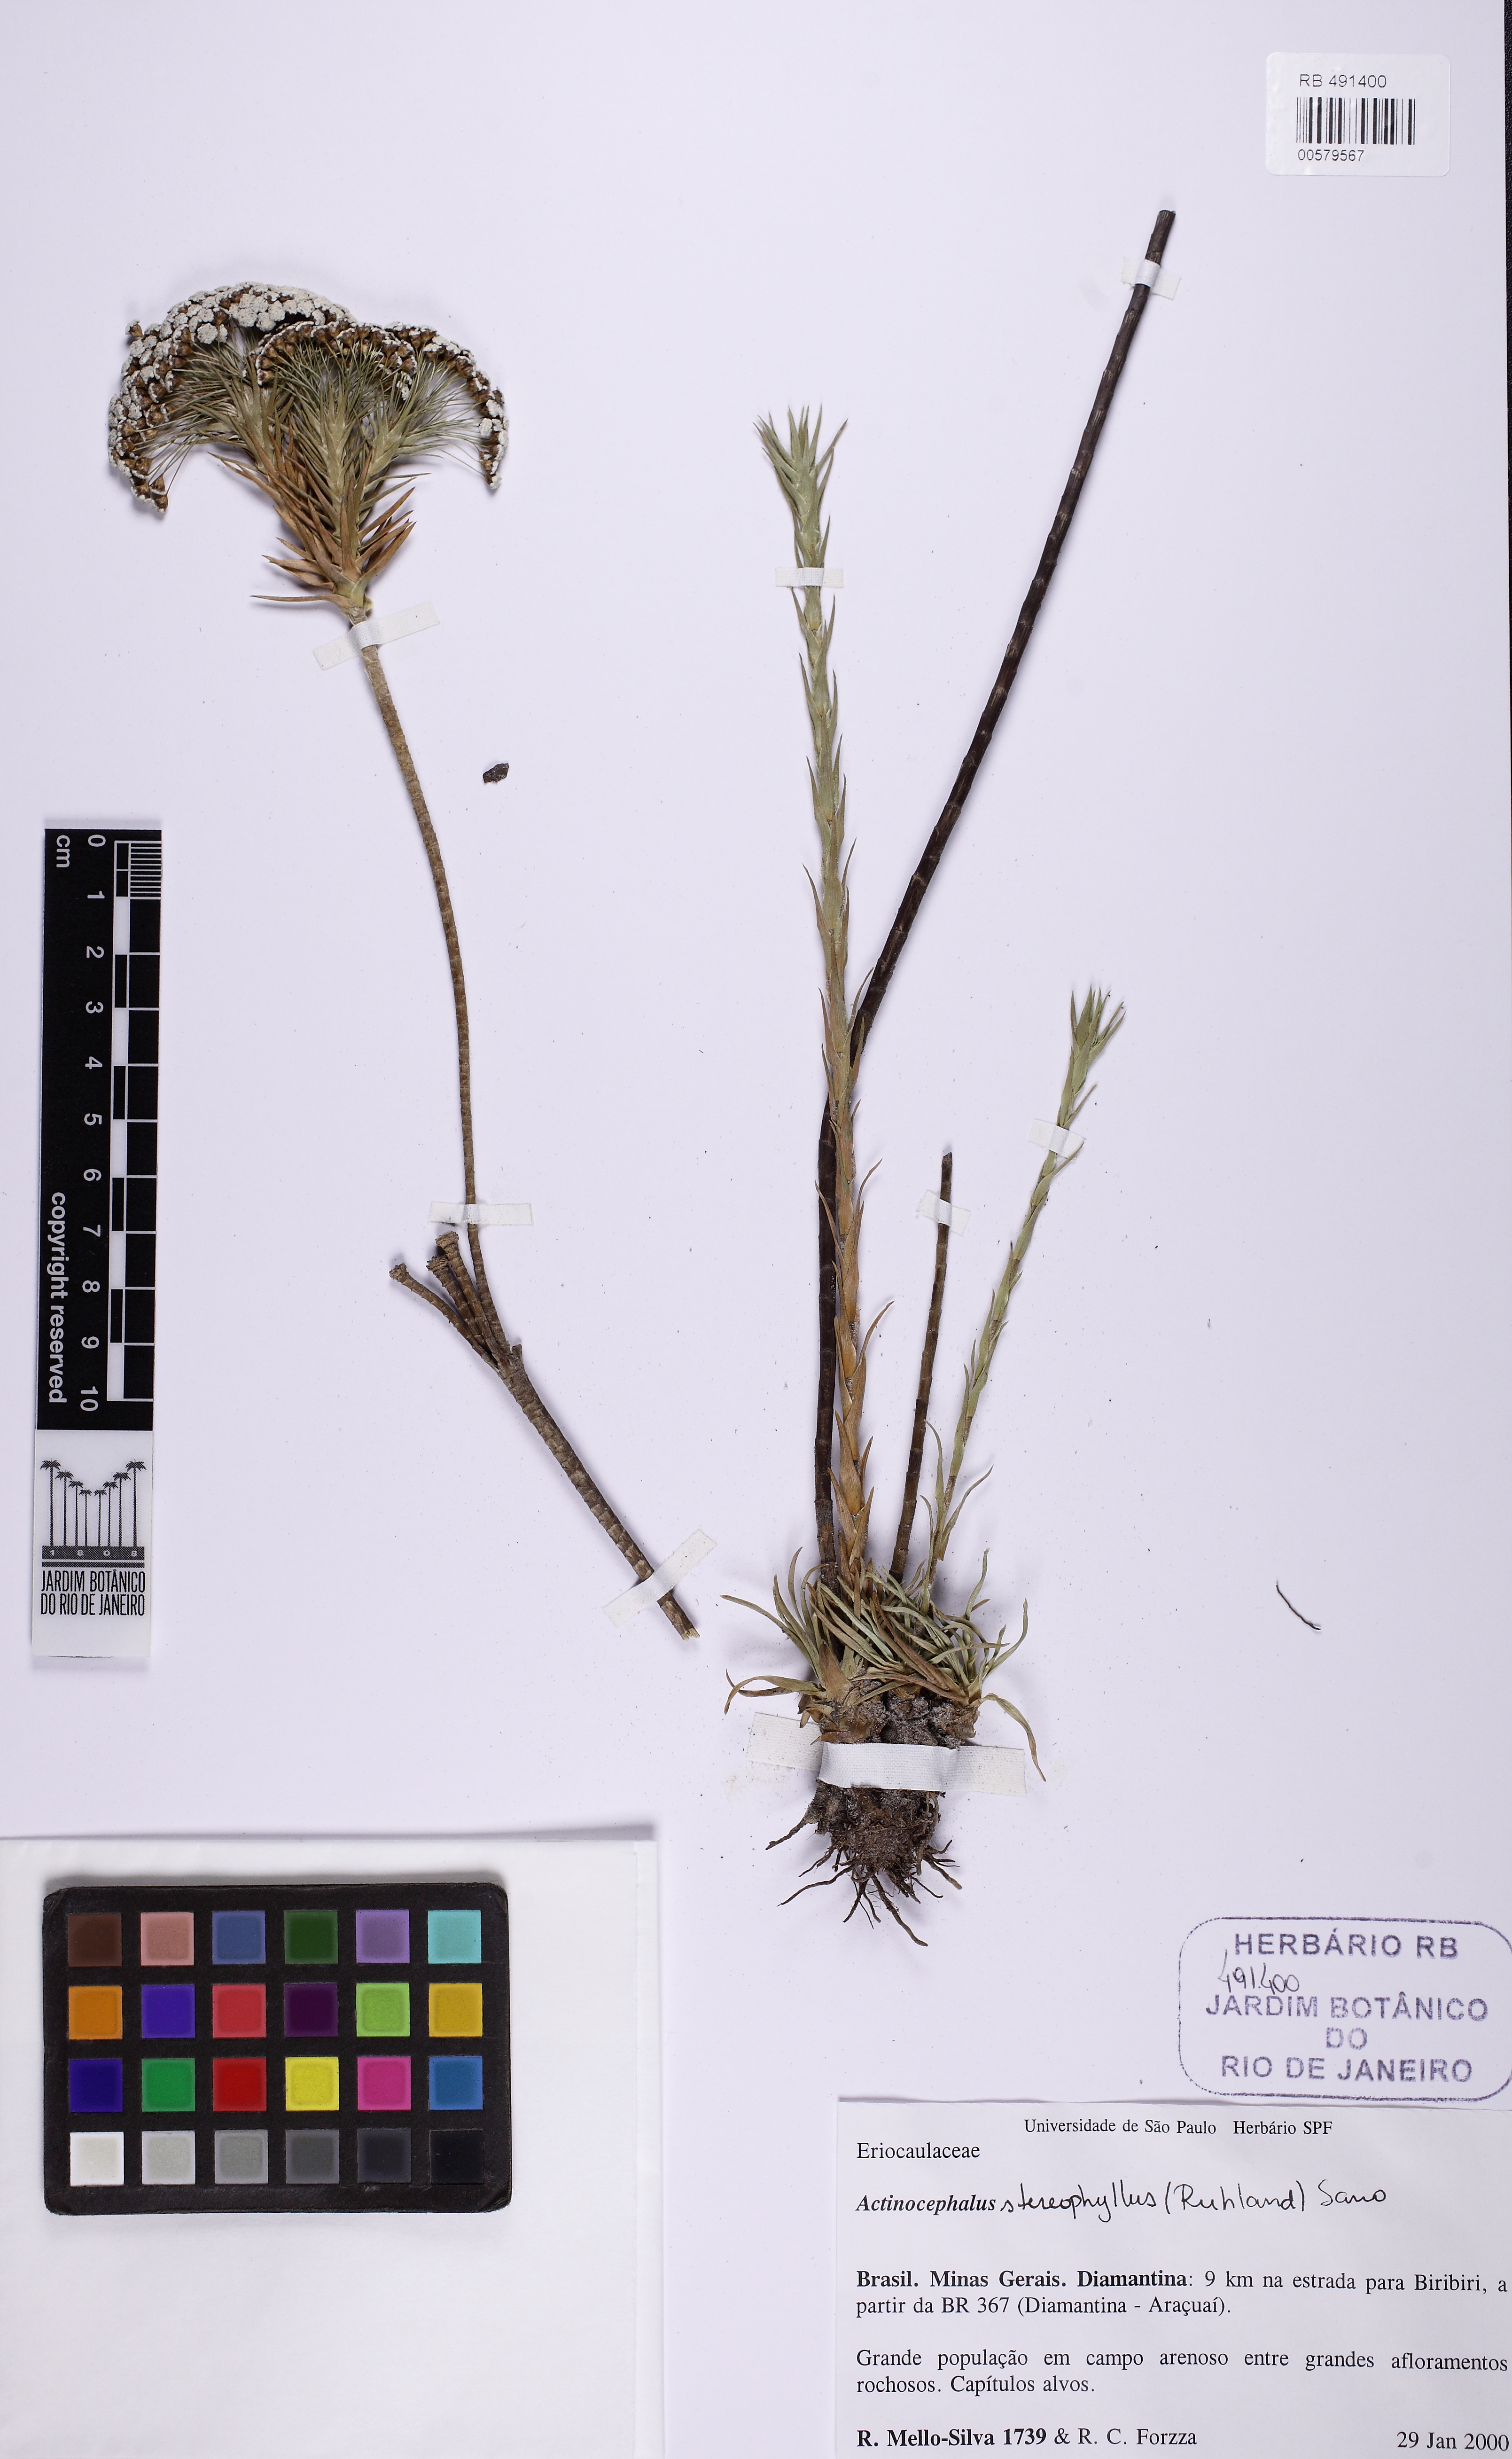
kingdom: Plantae
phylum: Tracheophyta
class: Liliopsida
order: Poales
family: Eriocaulaceae
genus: Paepalanthus
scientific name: Paepalanthus stereophyllus
